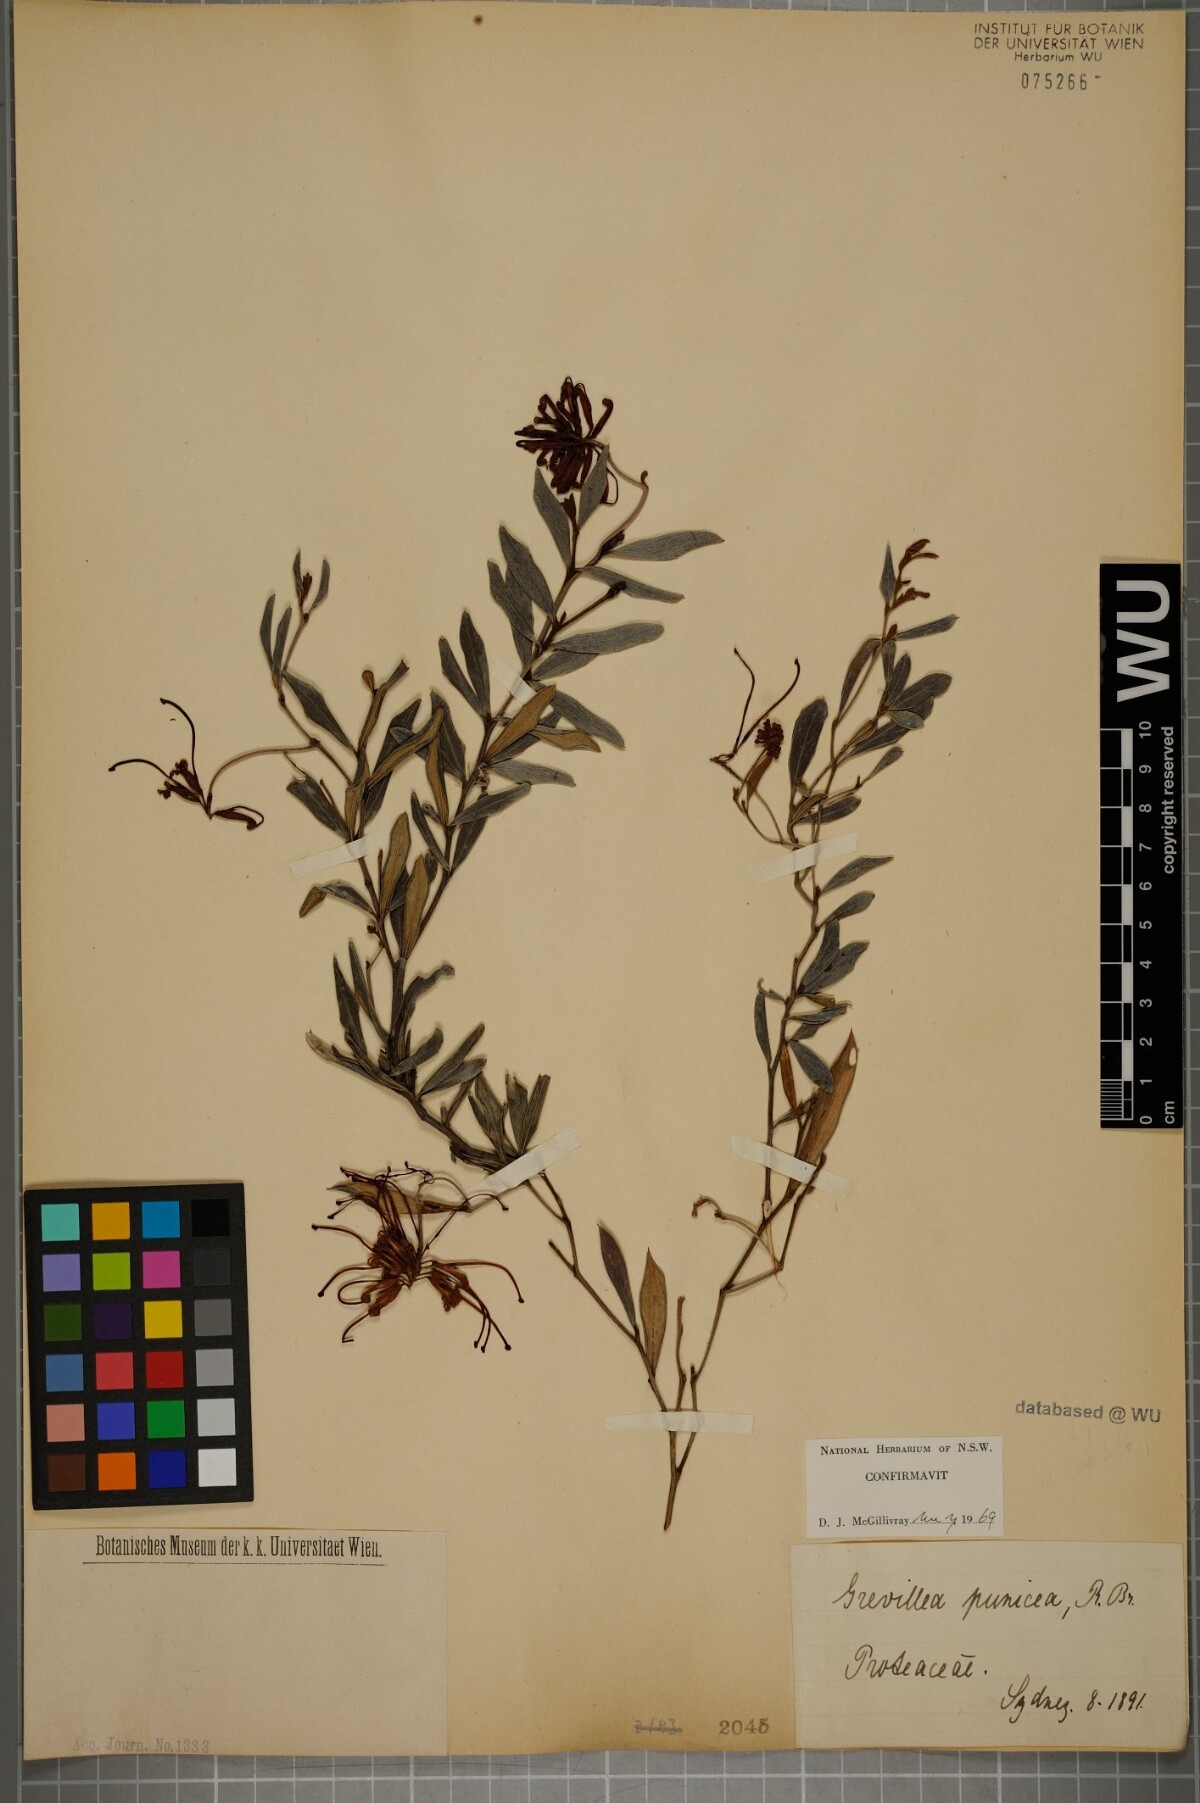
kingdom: Plantae
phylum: Tracheophyta
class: Magnoliopsida
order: Proteales
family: Proteaceae
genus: Grevillea
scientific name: Grevillea speciosa
